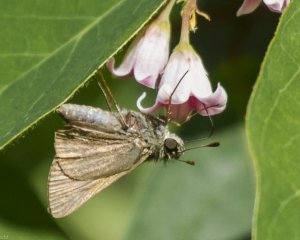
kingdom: Animalia
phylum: Arthropoda
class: Insecta
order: Lepidoptera
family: Hesperiidae
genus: Polites
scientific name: Polites themistocles
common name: Tawny-edged Skipper
